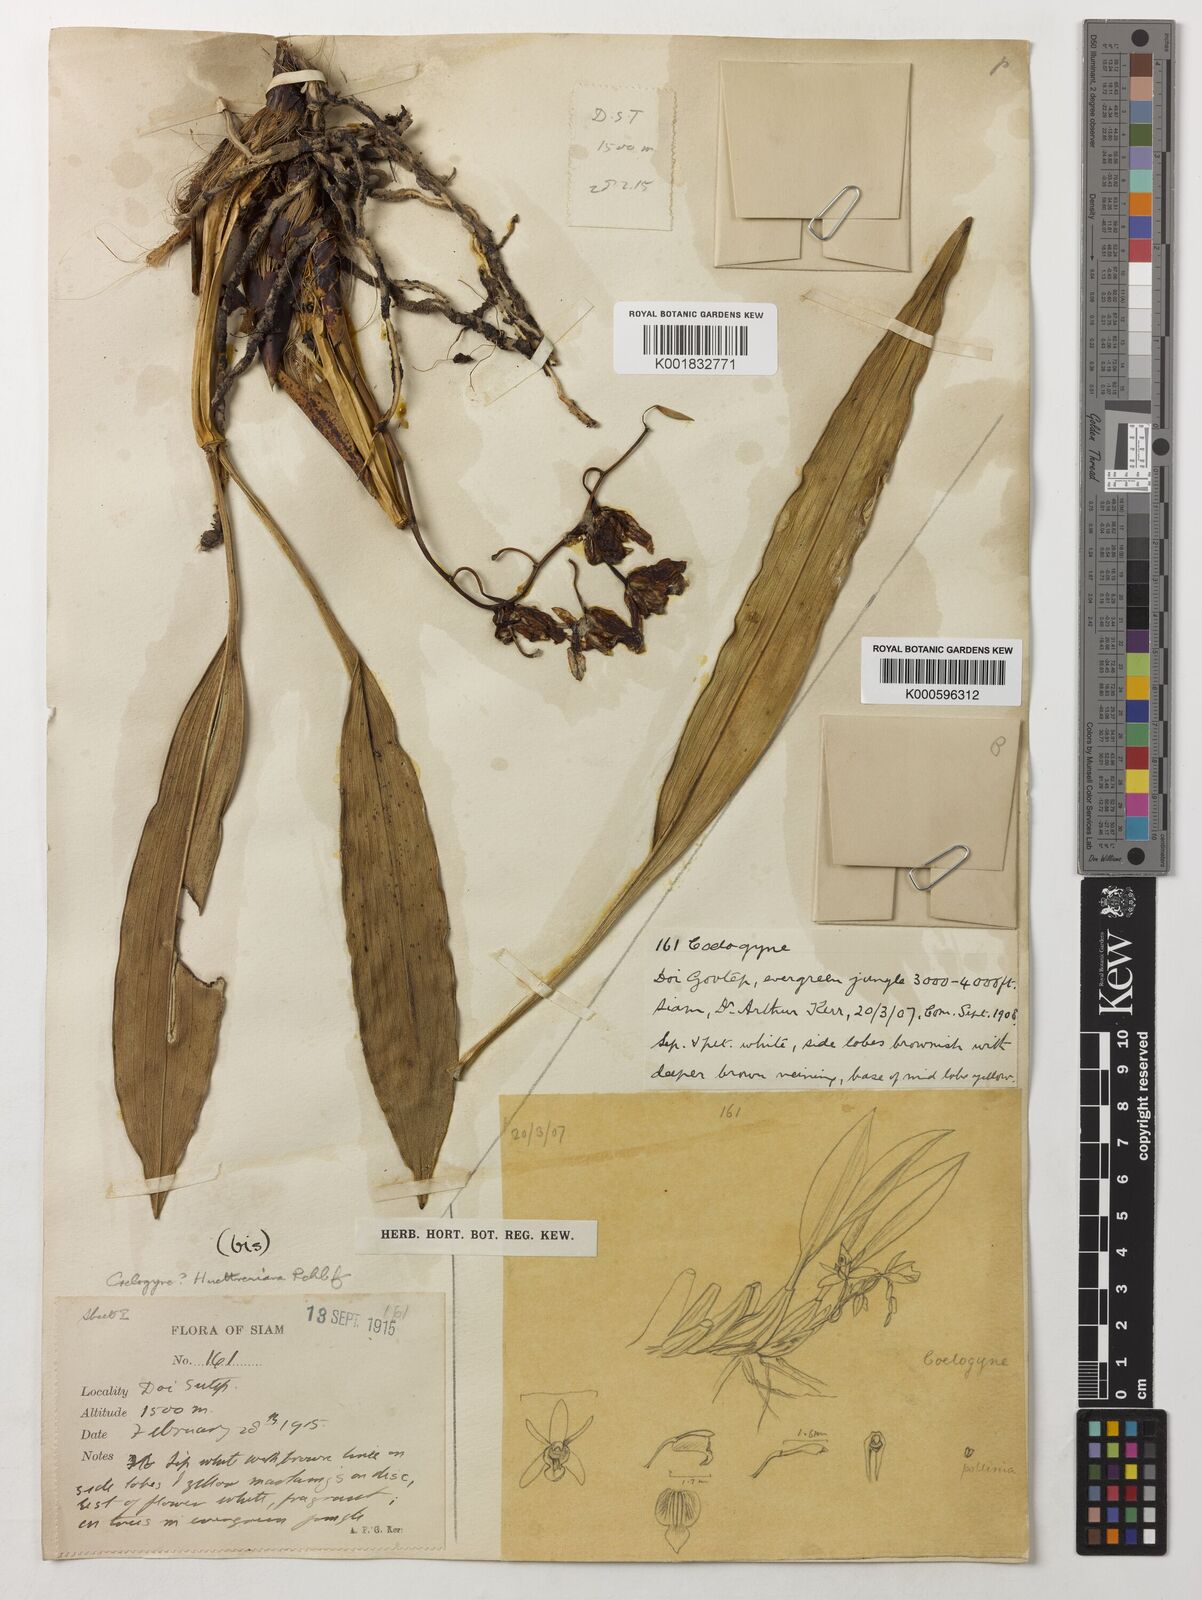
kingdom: Plantae
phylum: Tracheophyta
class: Liliopsida
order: Asparagales
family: Orchidaceae
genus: Coelogyne
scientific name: Coelogyne huettneriana
